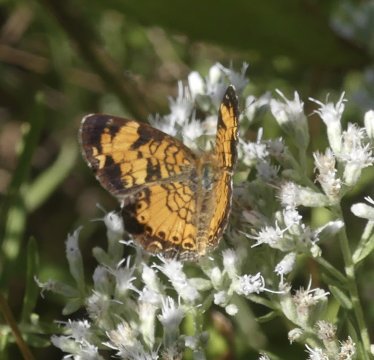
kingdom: Animalia
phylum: Arthropoda
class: Insecta
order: Lepidoptera
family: Nymphalidae
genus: Phyciodes
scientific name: Phyciodes tharos
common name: Pearl Crescent
